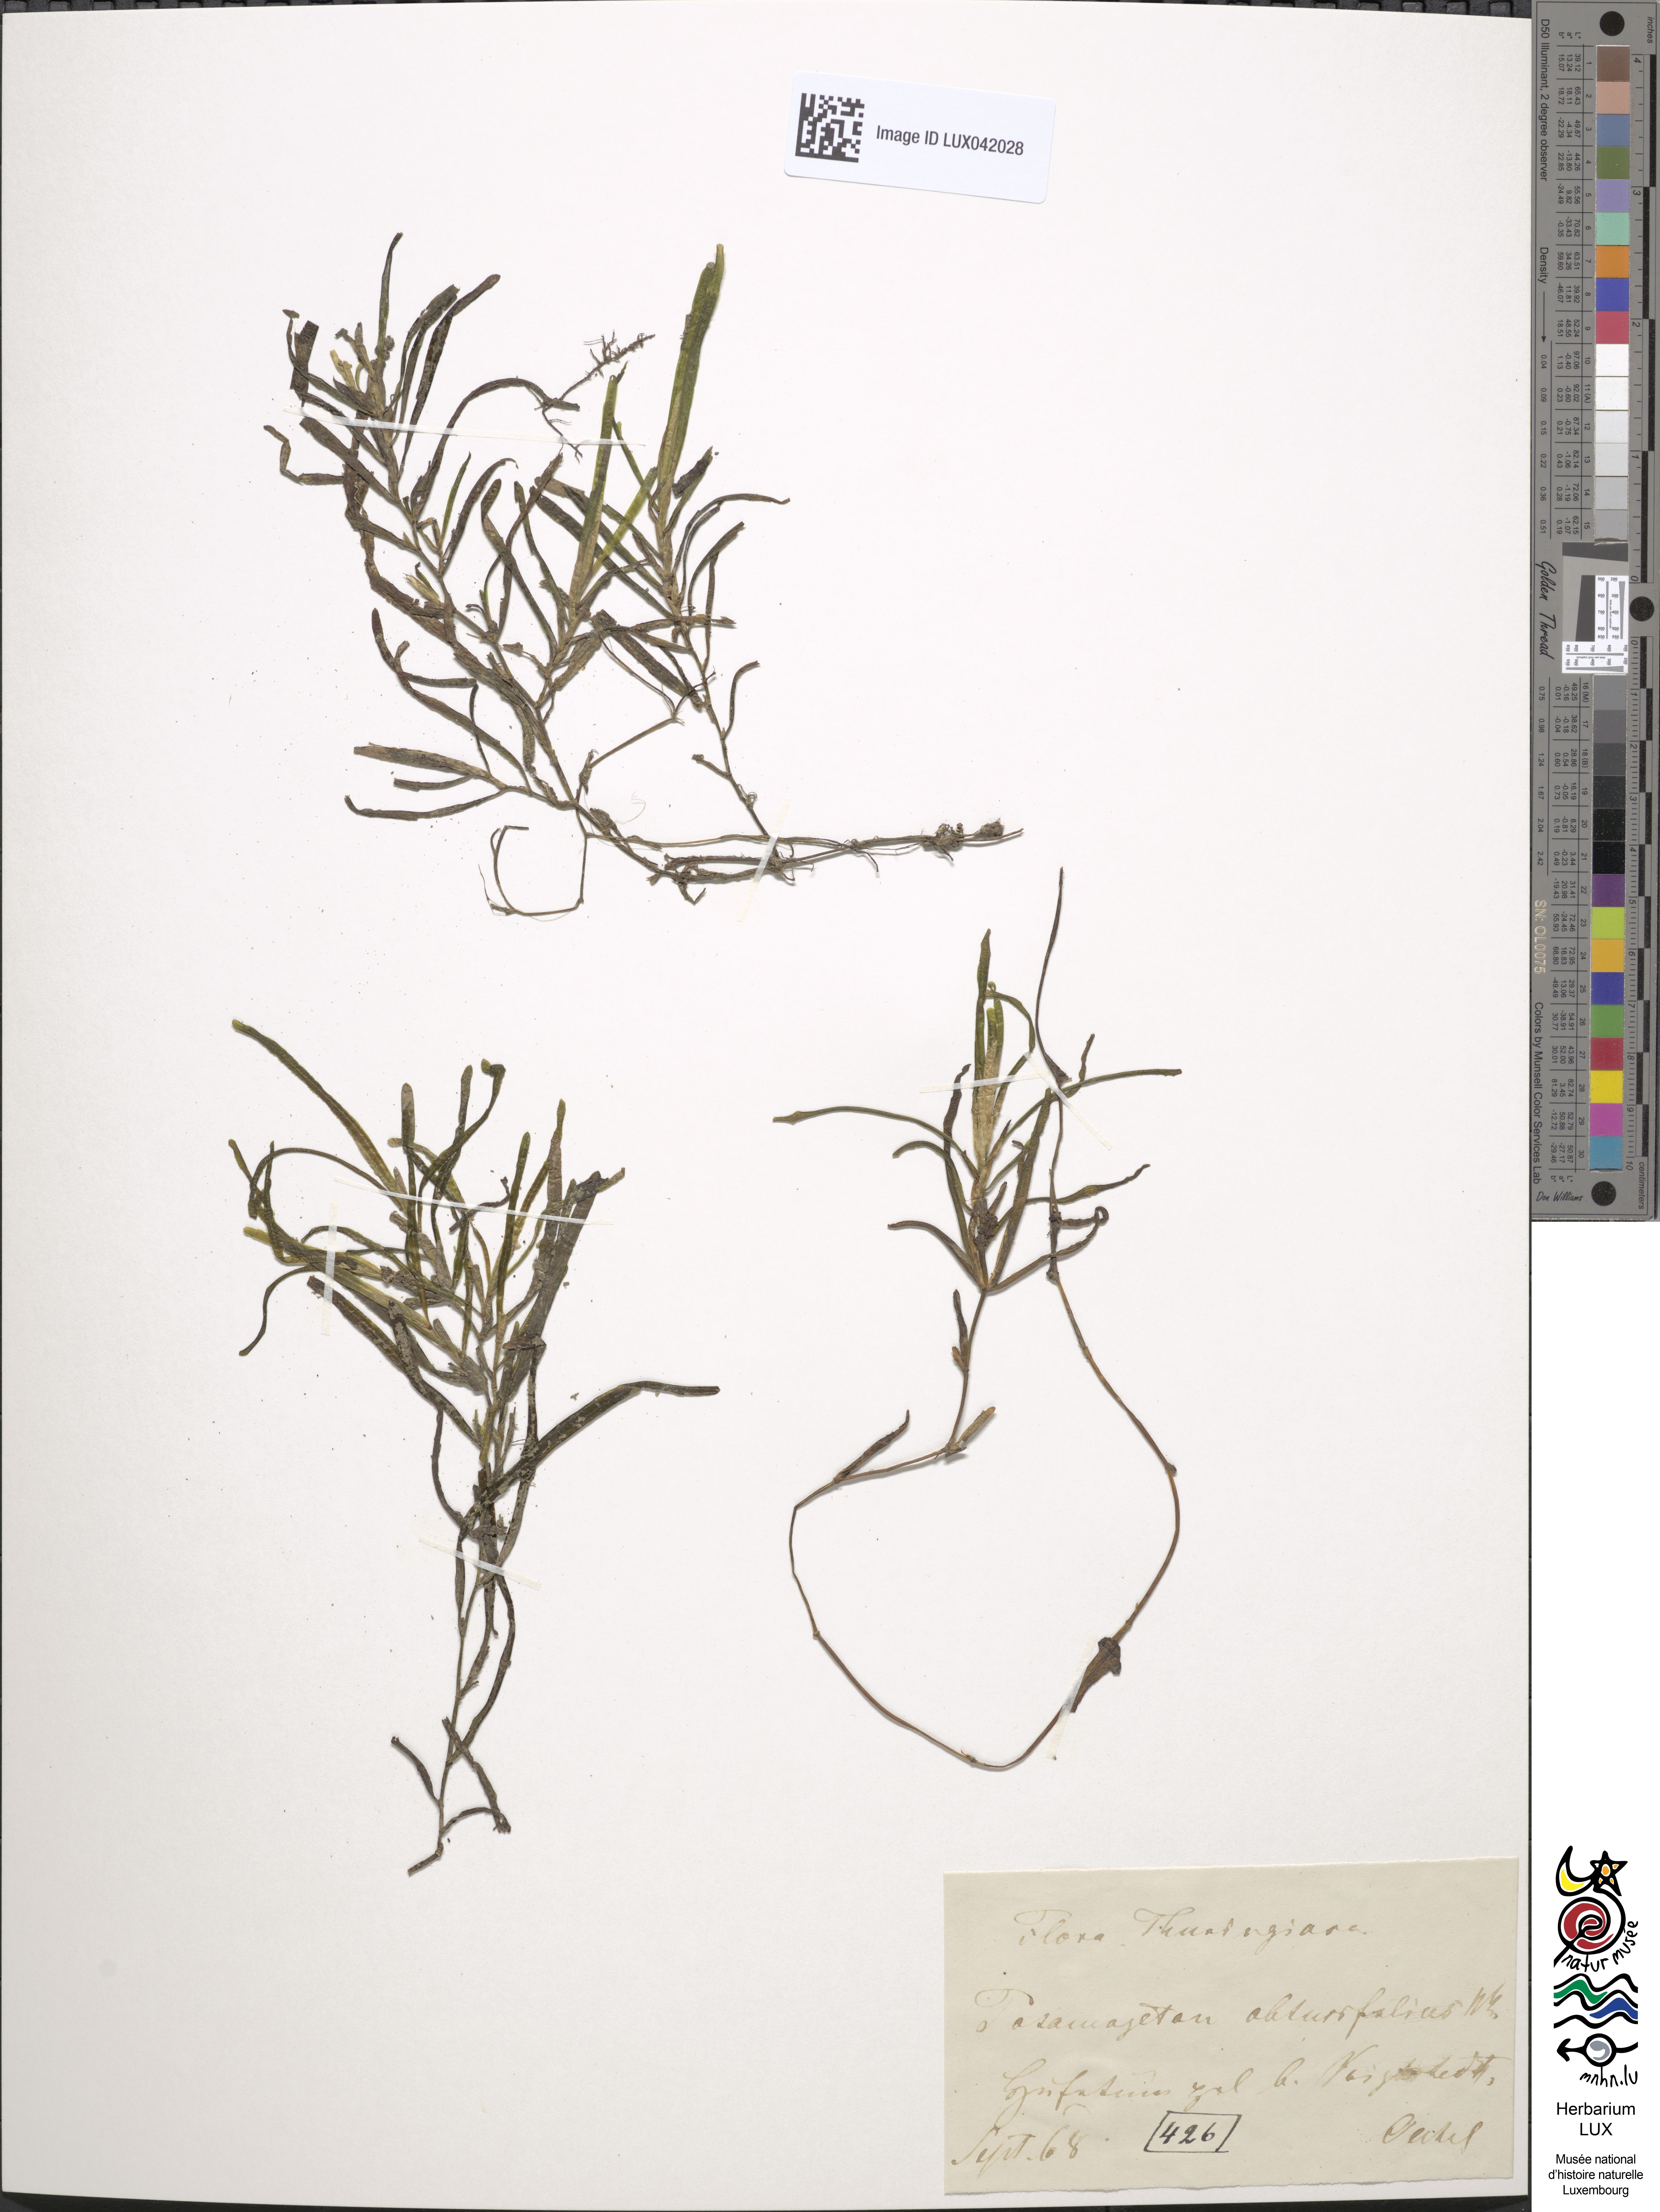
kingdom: Plantae
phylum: Tracheophyta
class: Liliopsida
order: Alismatales
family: Potamogetonaceae
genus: Potamogeton
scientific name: Potamogeton obtusifolius
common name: Blunt-leaved pondweed
